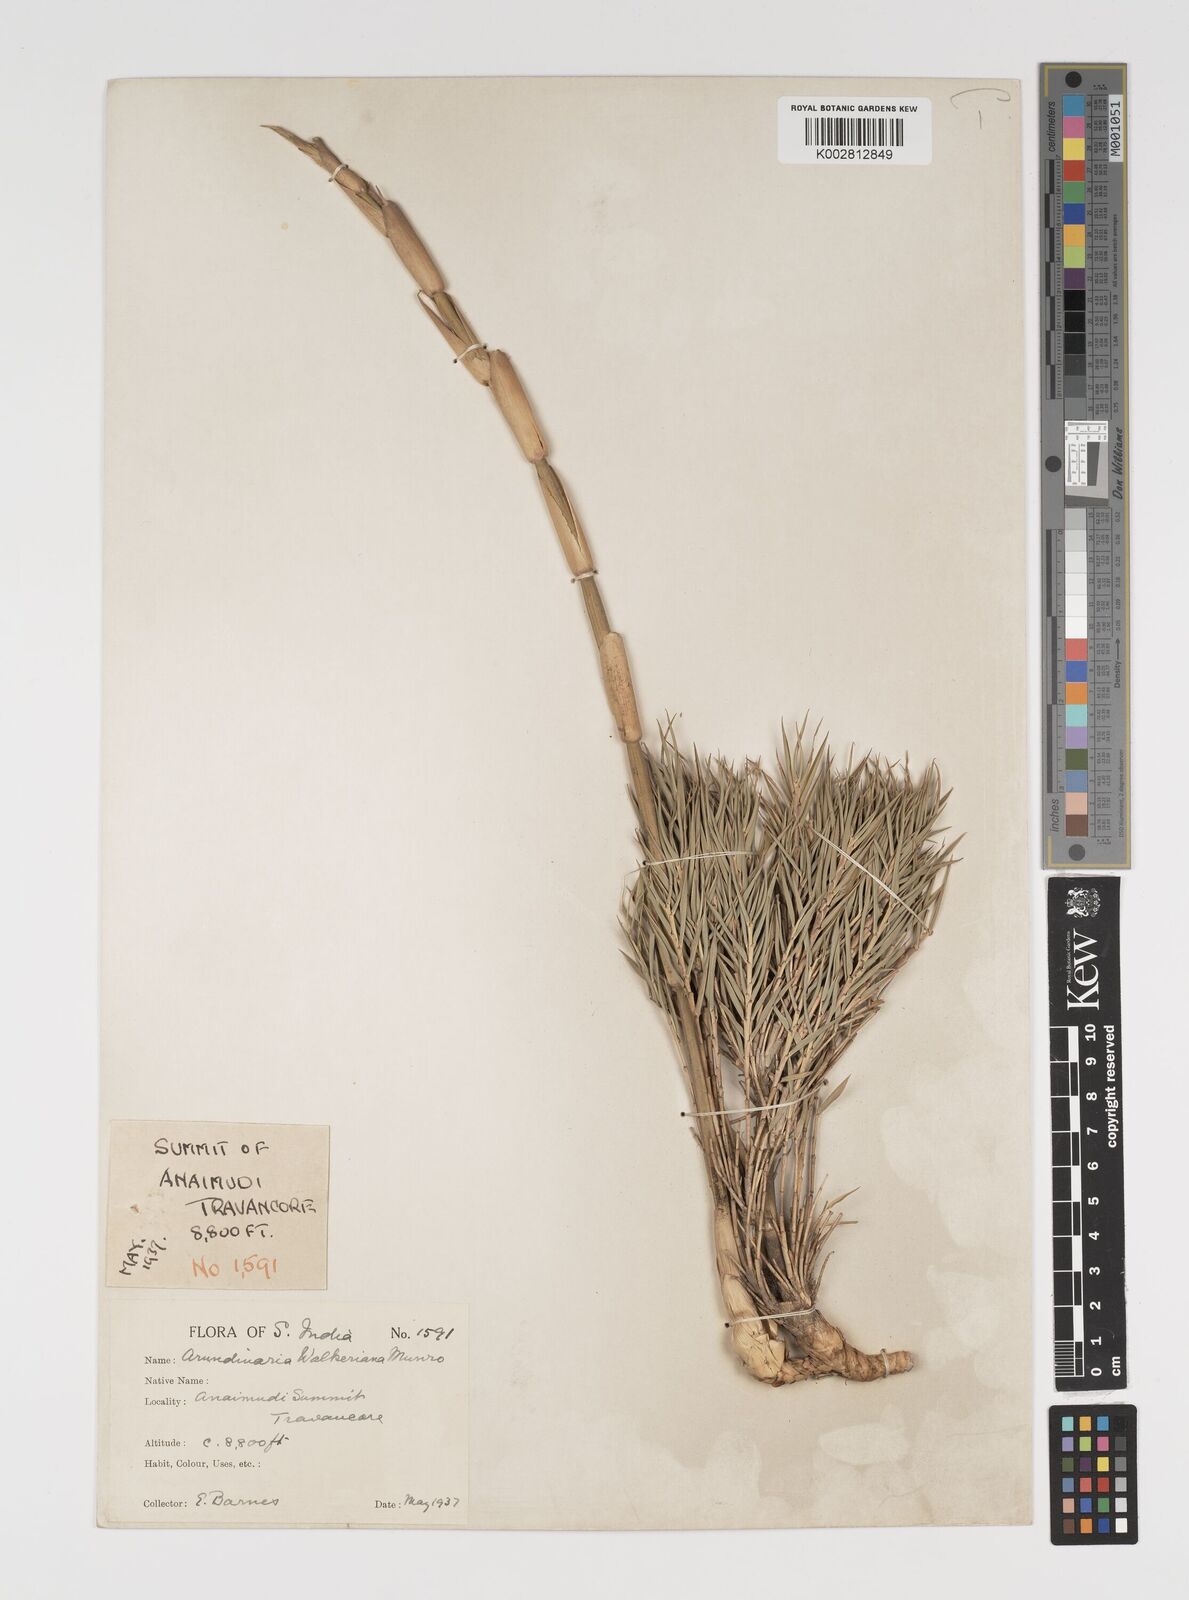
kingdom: Plantae
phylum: Tracheophyta
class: Liliopsida
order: Poales
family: Poaceae
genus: Kuruna
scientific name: Kuruna walkeriana
